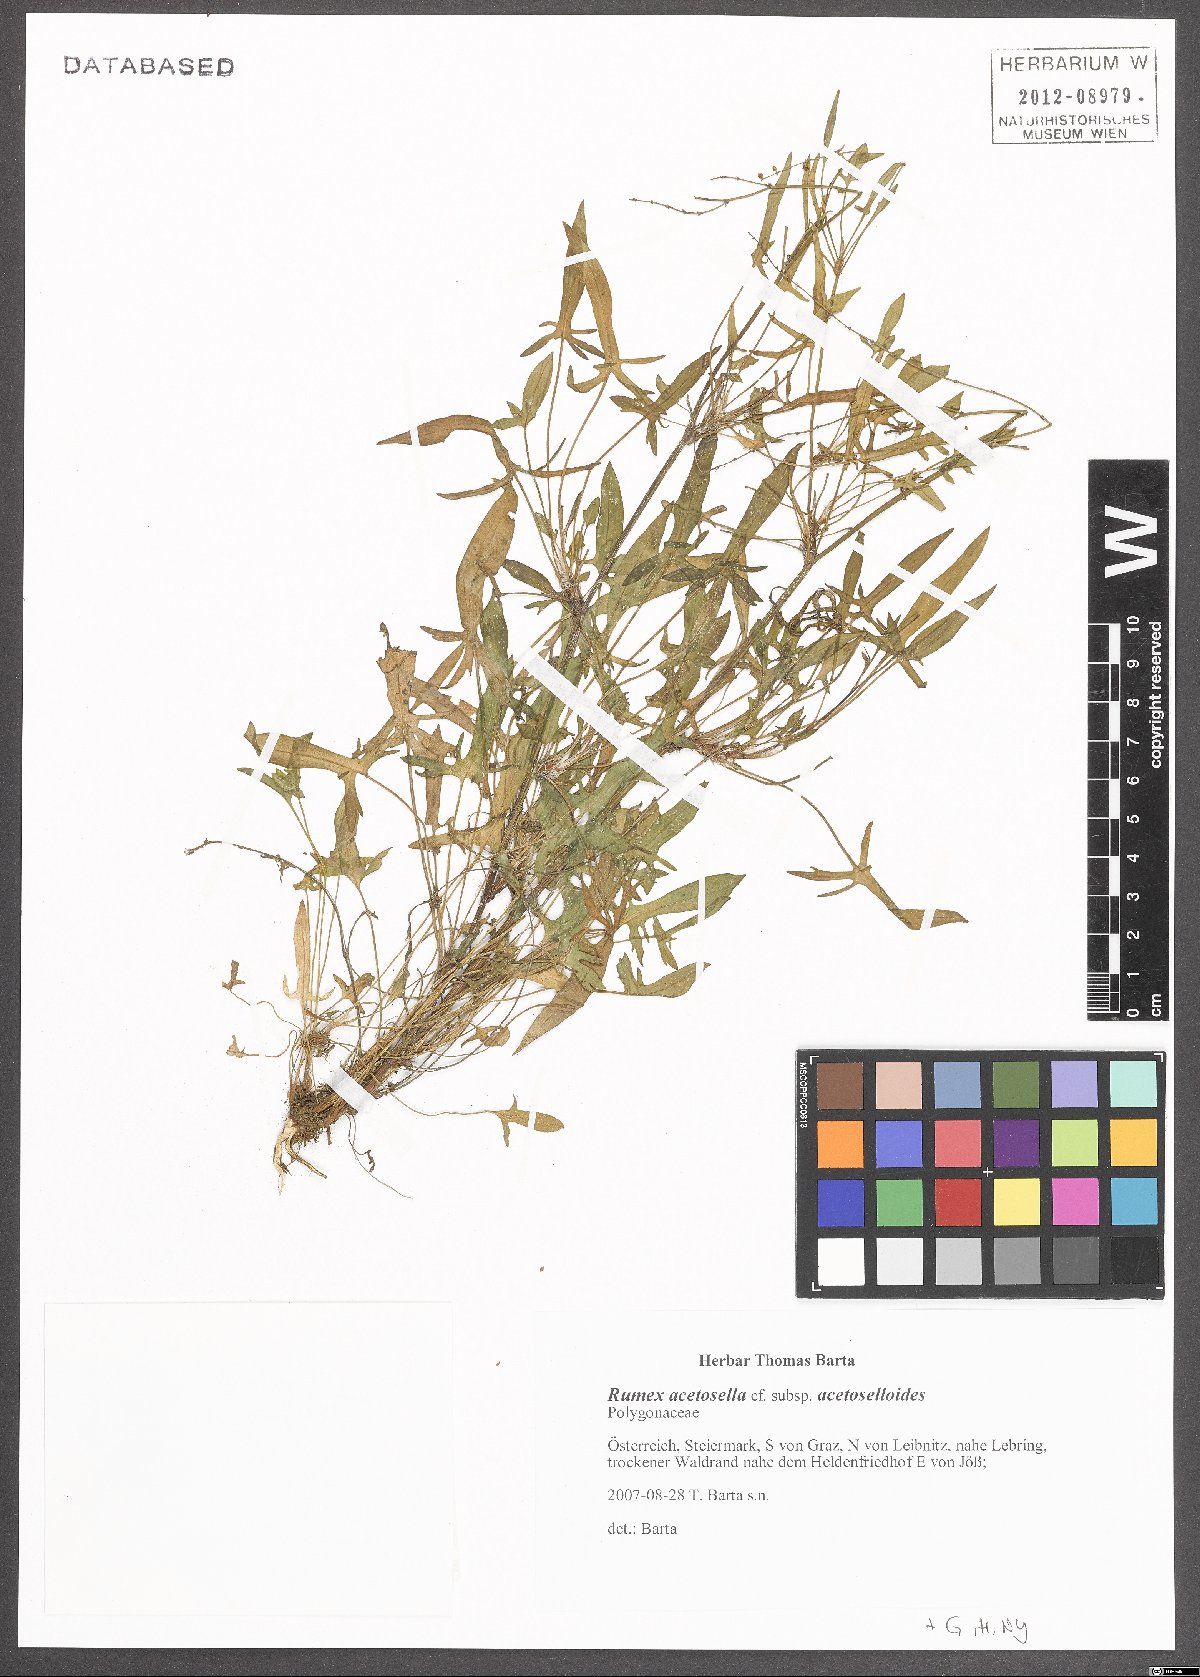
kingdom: Plantae
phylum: Tracheophyta
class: Magnoliopsida
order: Caryophyllales
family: Polygonaceae
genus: Rumex
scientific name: Rumex acetosella
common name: Common sheep sorrel
